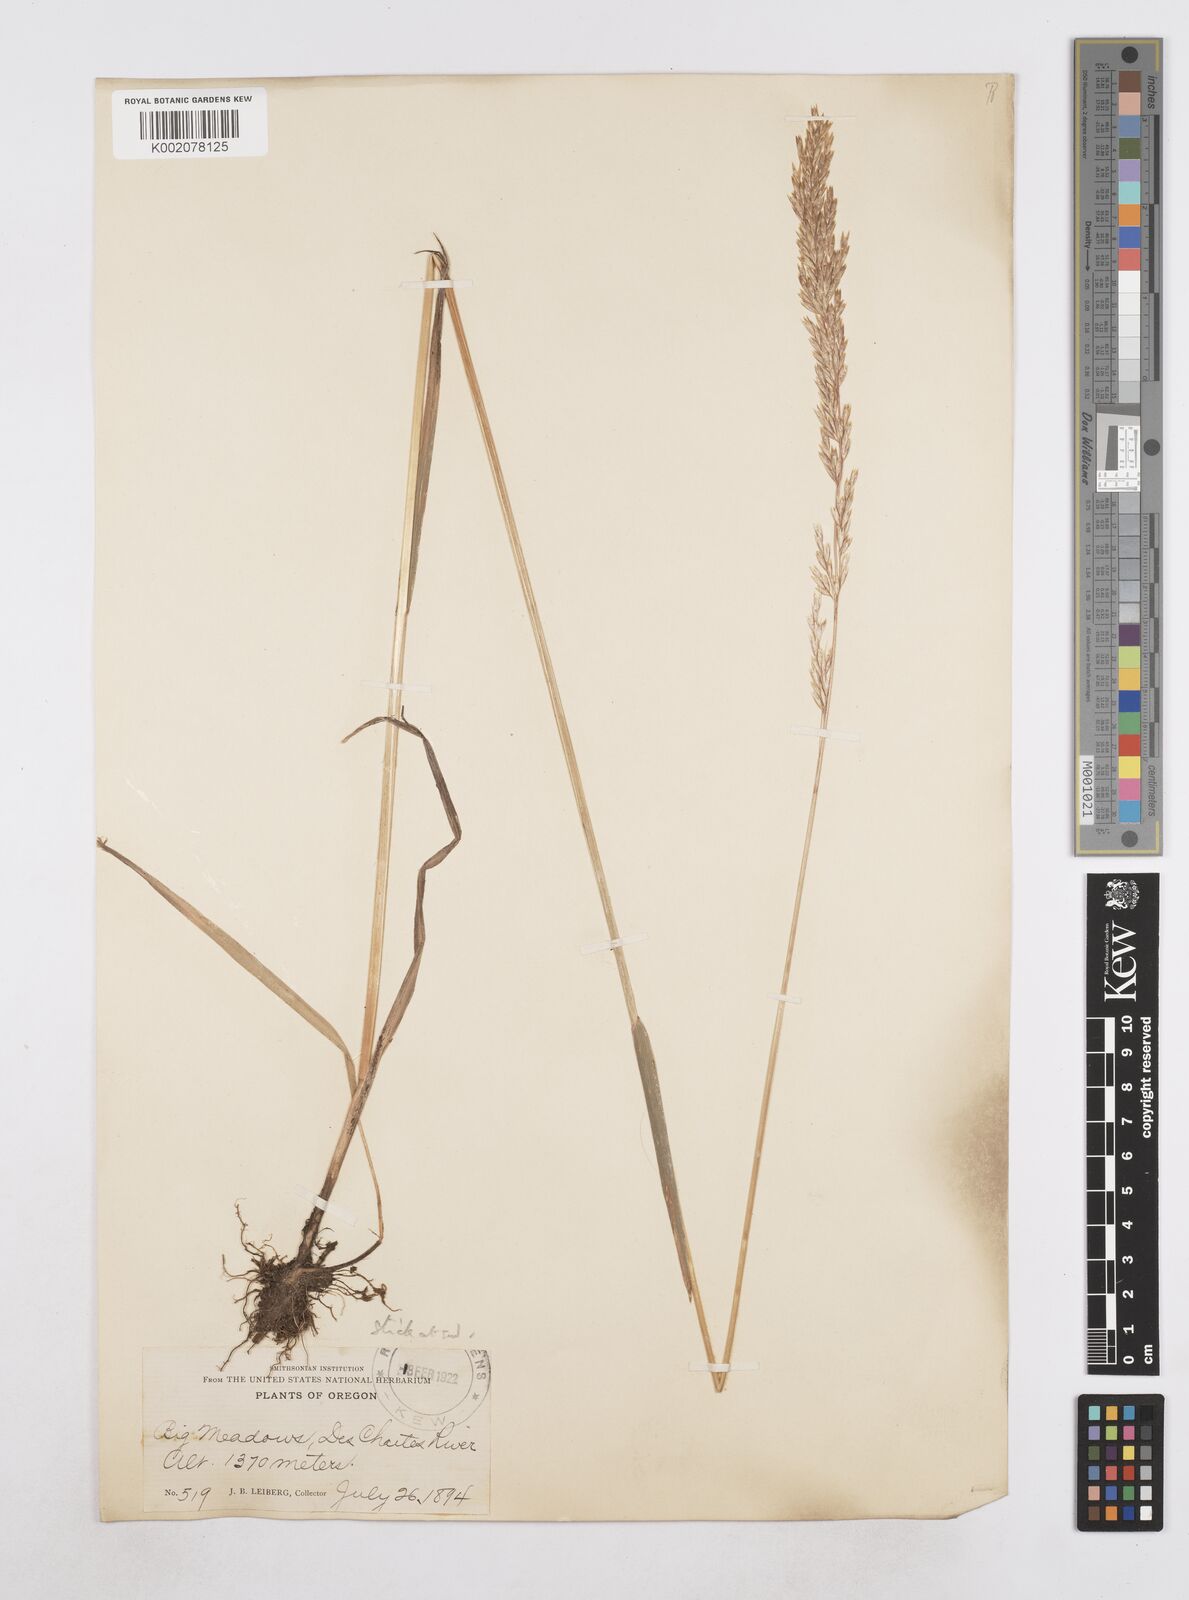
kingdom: Plantae
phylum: Tracheophyta
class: Liliopsida
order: Poales
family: Poaceae
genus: Poa
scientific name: Poa
